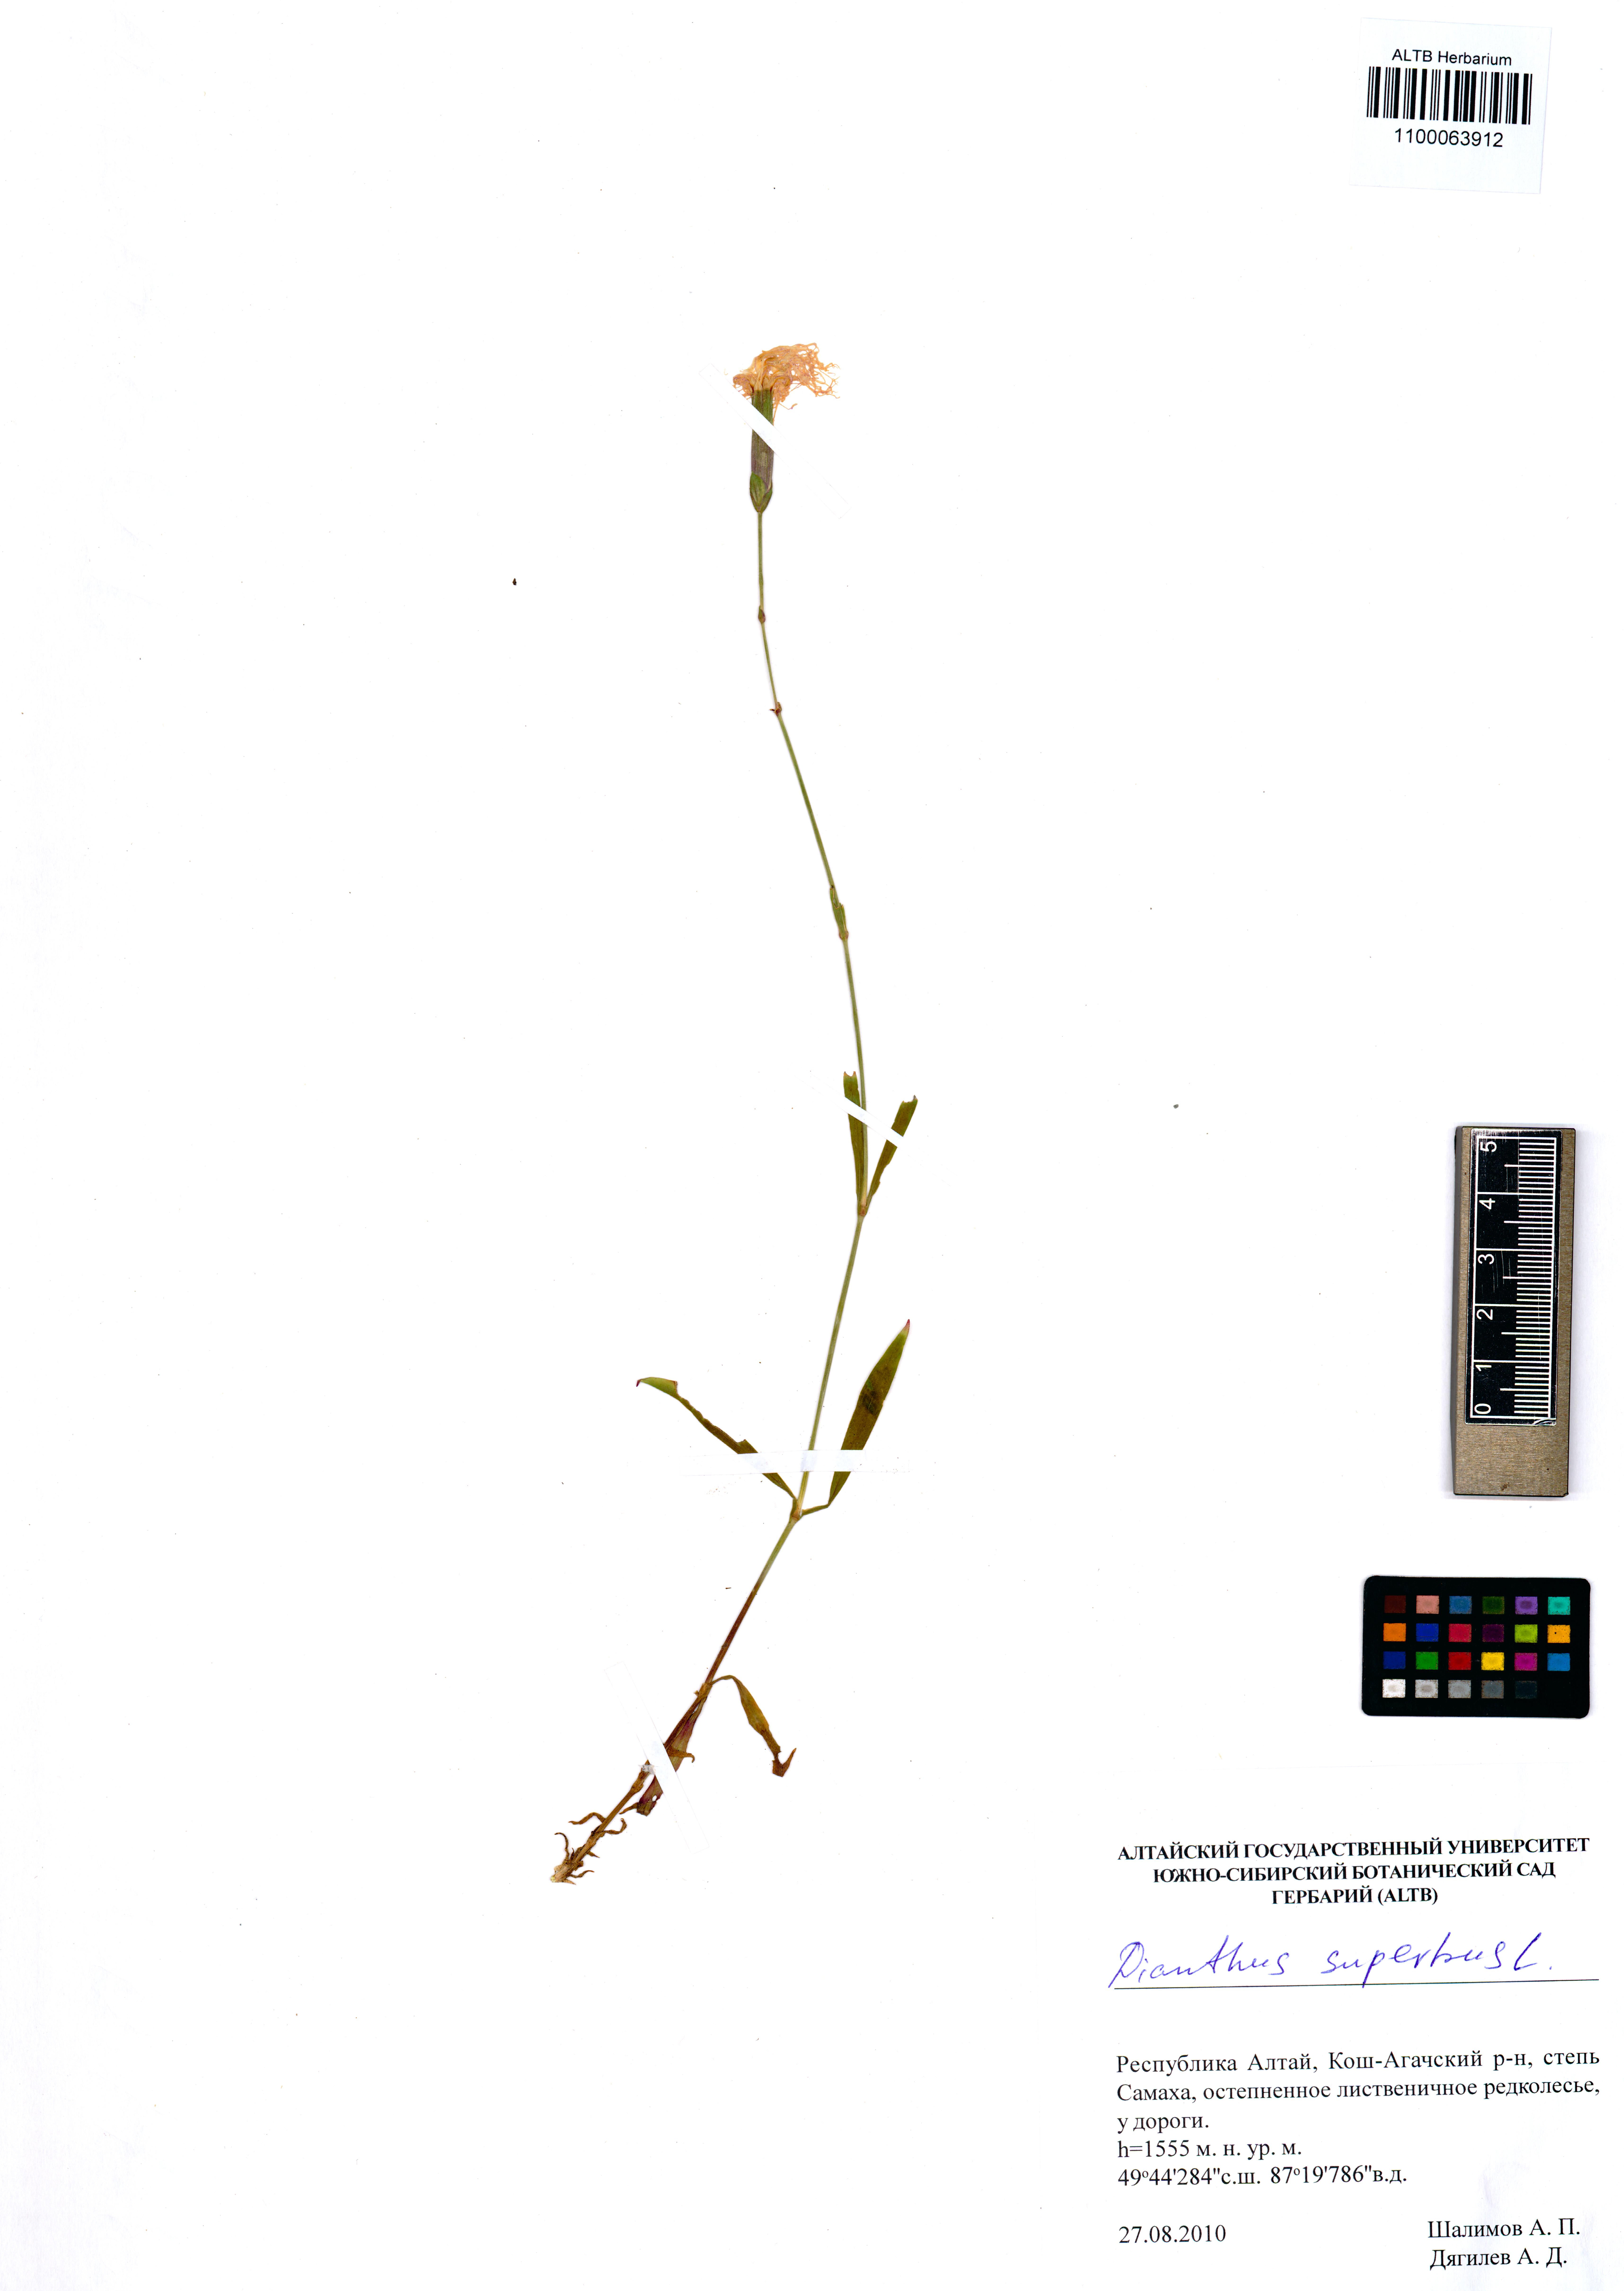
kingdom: Plantae
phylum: Tracheophyta
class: Magnoliopsida
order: Caryophyllales
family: Caryophyllaceae
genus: Dianthus
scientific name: Dianthus superbus
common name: Fringed pink
